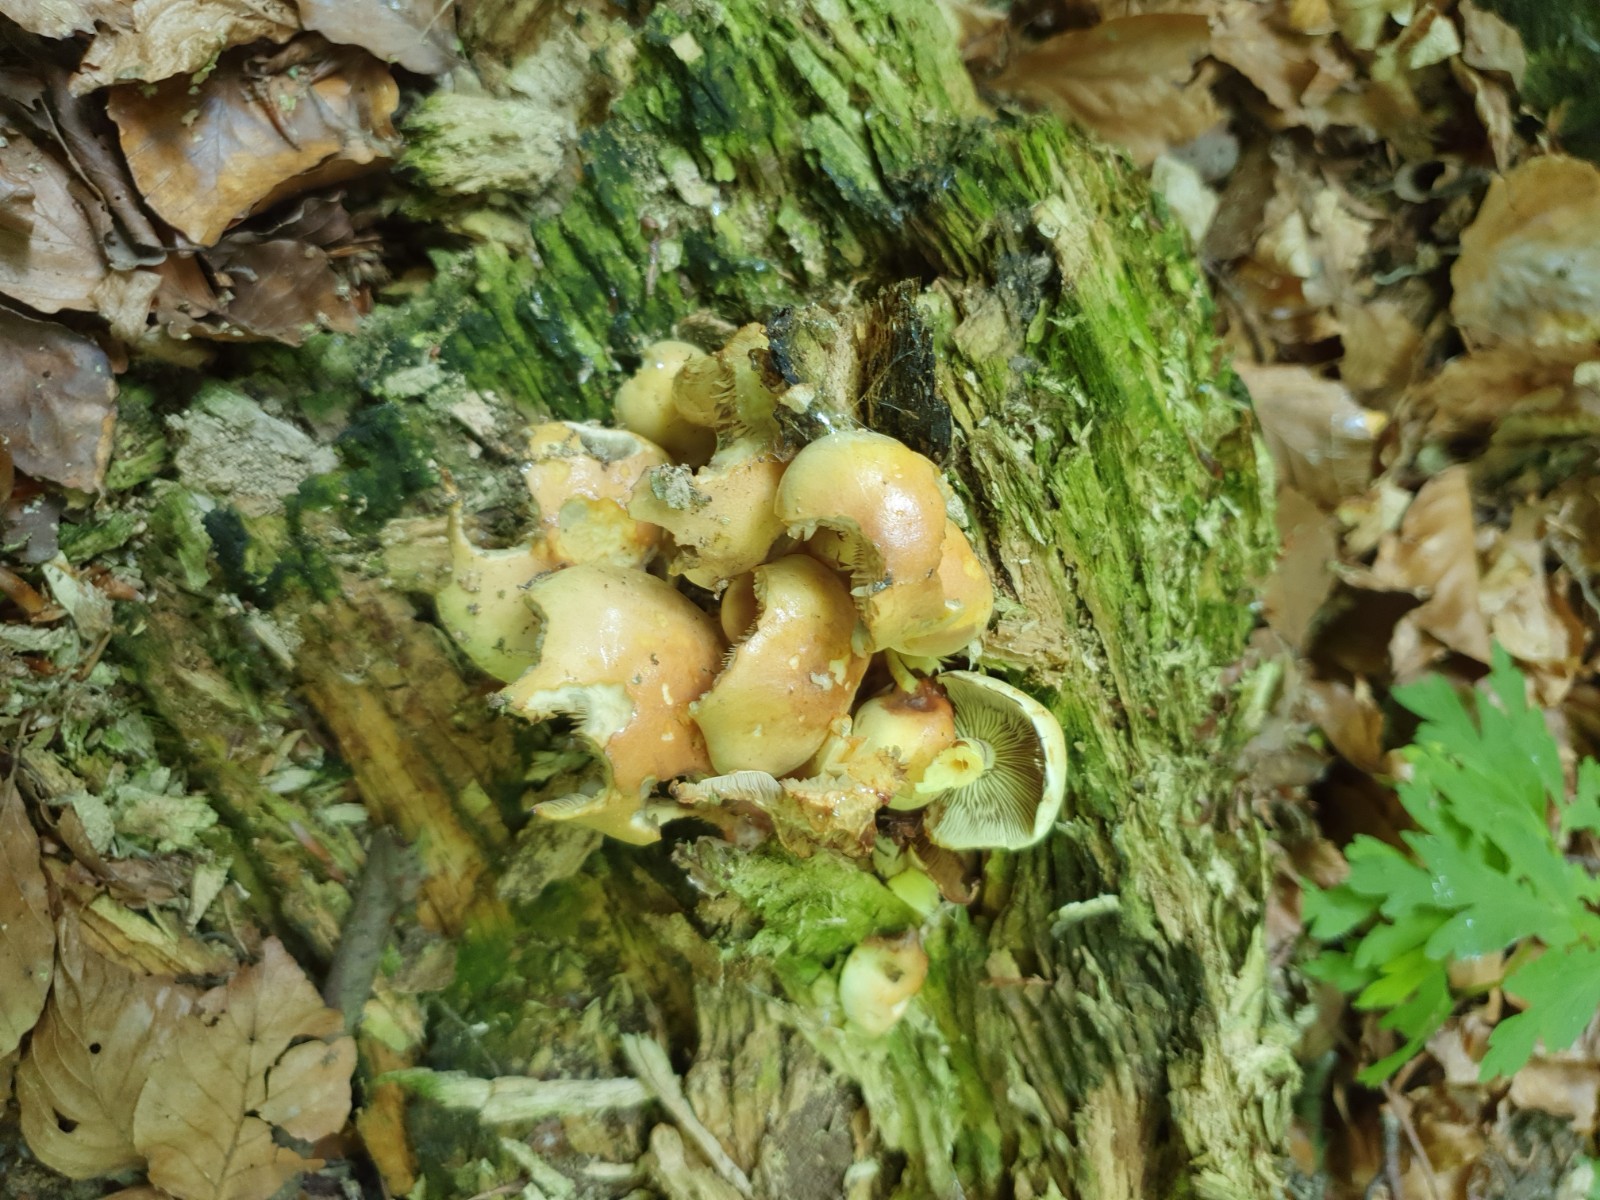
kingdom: Fungi
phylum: Basidiomycota
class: Agaricomycetes
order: Agaricales
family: Strophariaceae
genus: Hypholoma
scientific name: Hypholoma fasciculare
